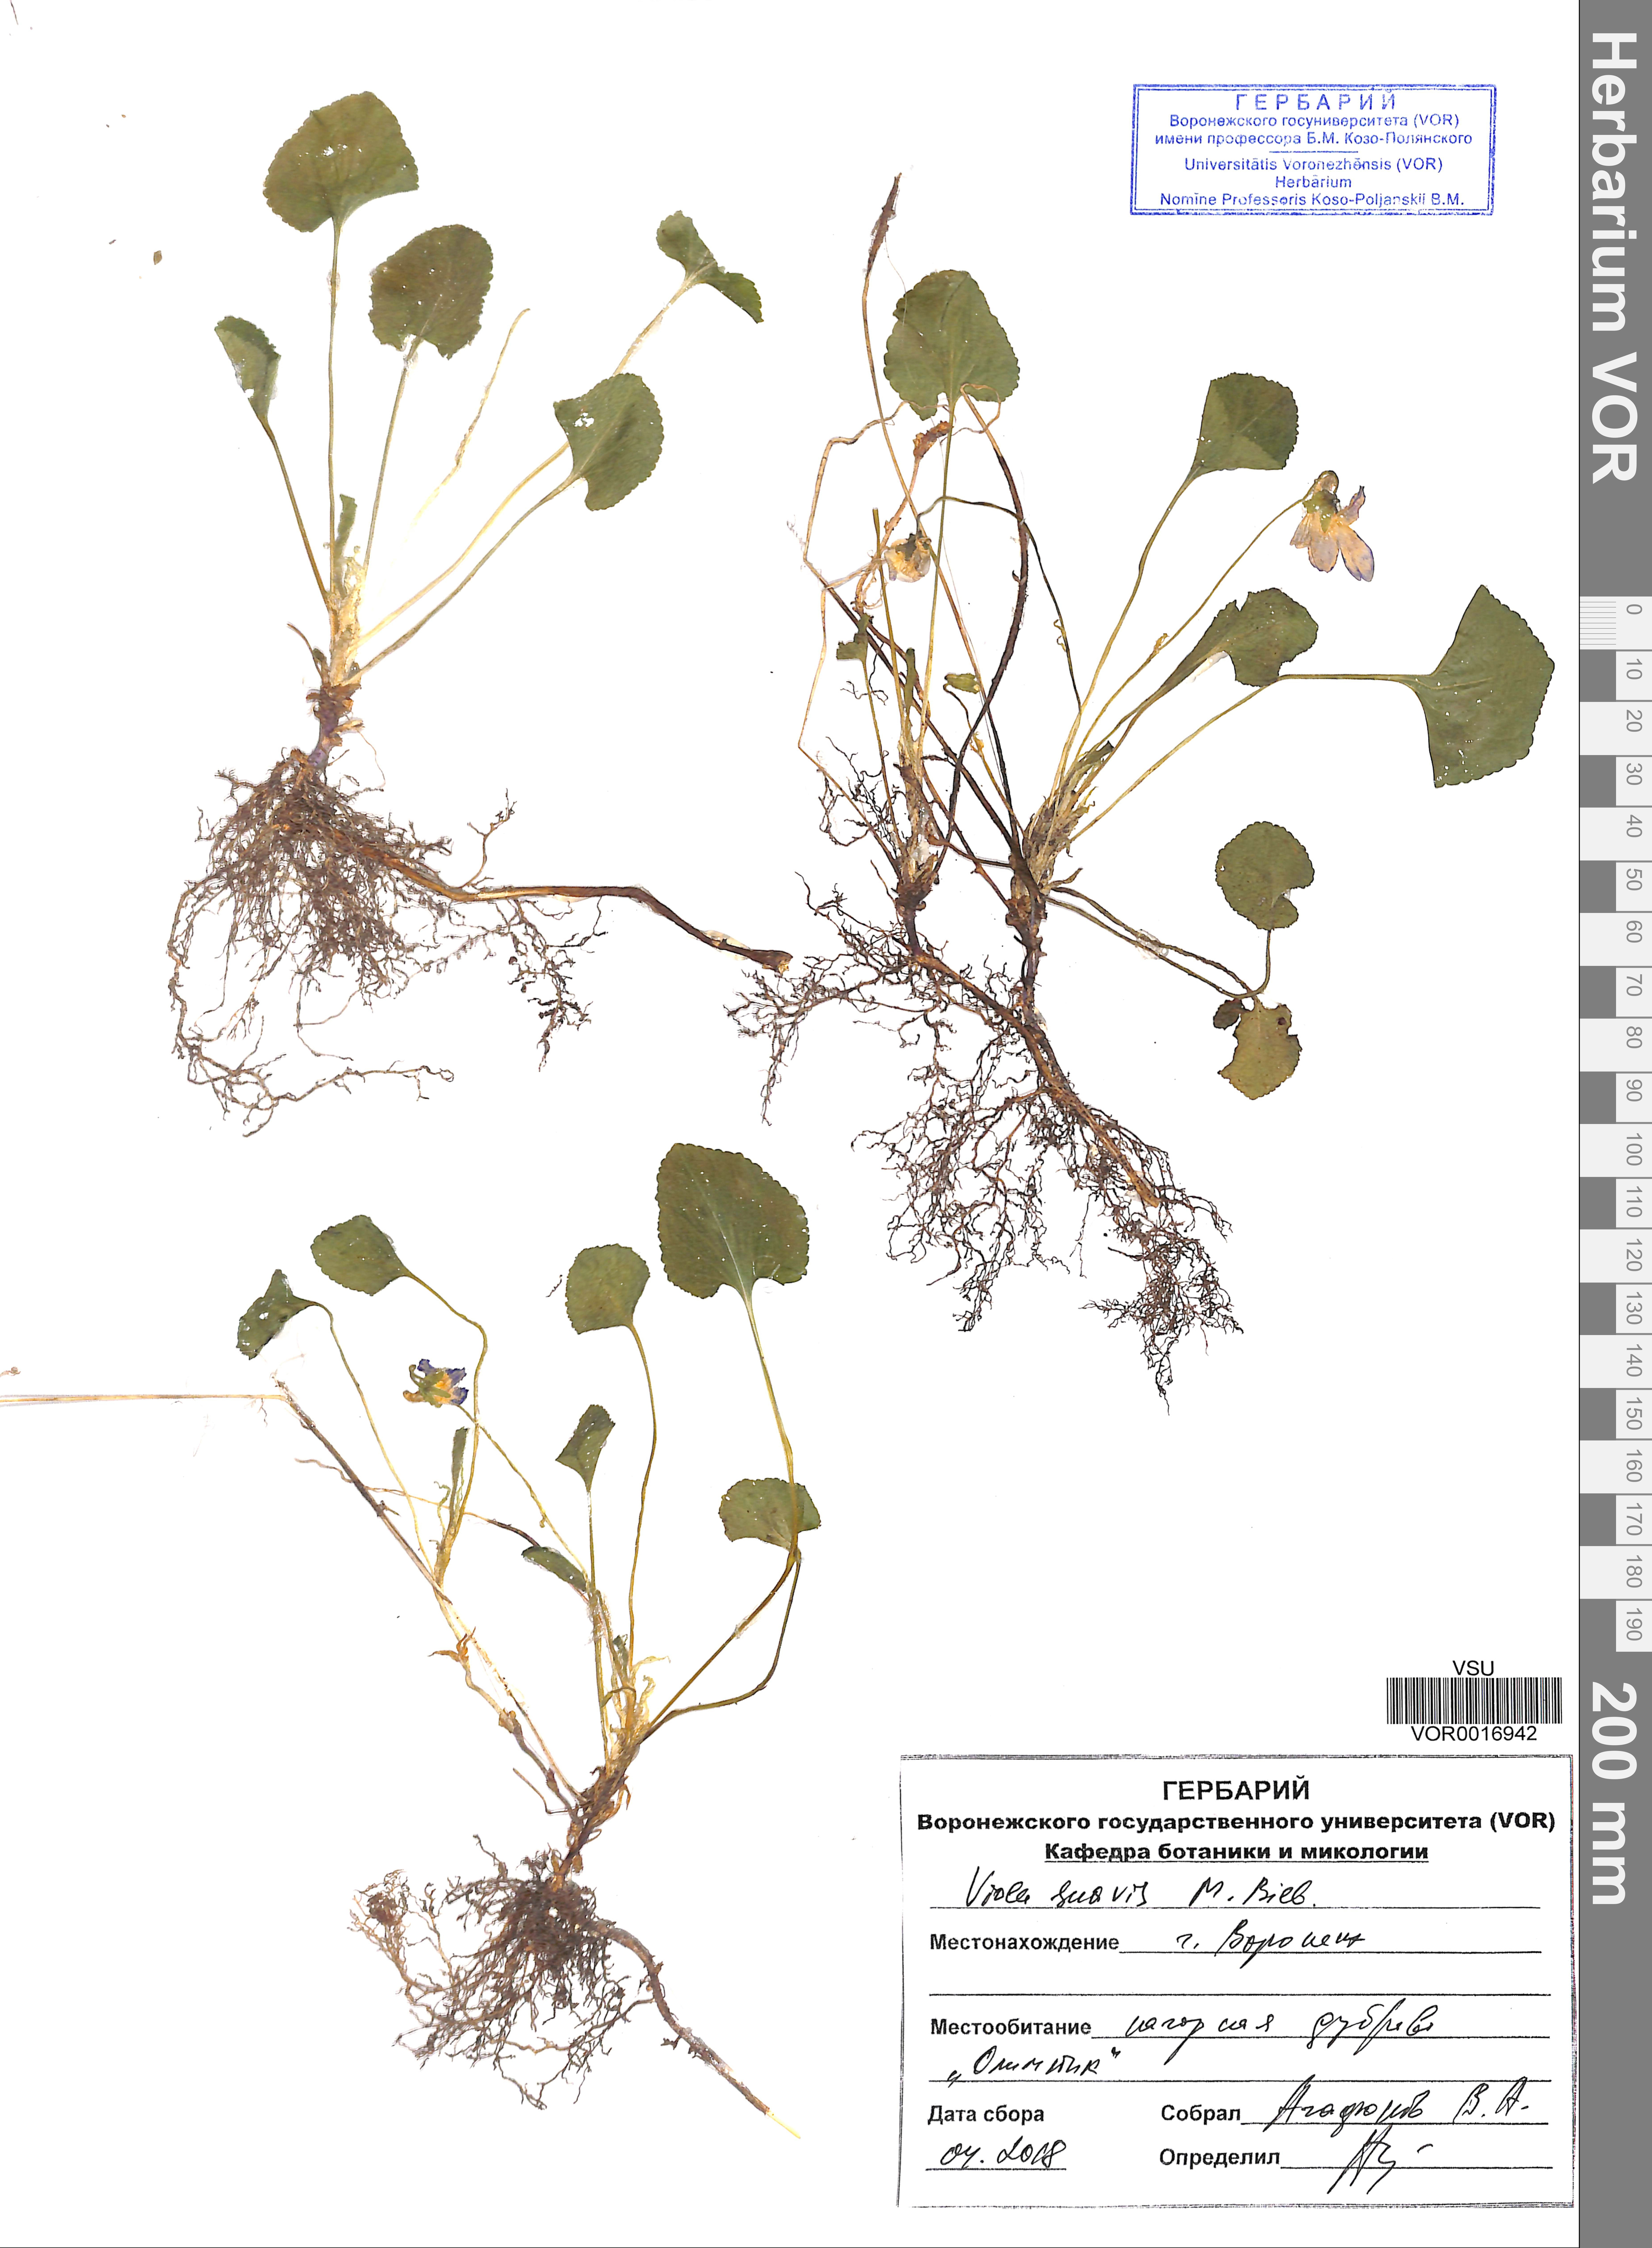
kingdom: Plantae
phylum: Tracheophyta
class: Magnoliopsida
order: Malpighiales
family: Violaceae
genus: Viola
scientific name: Viola suavis
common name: Russian violet
